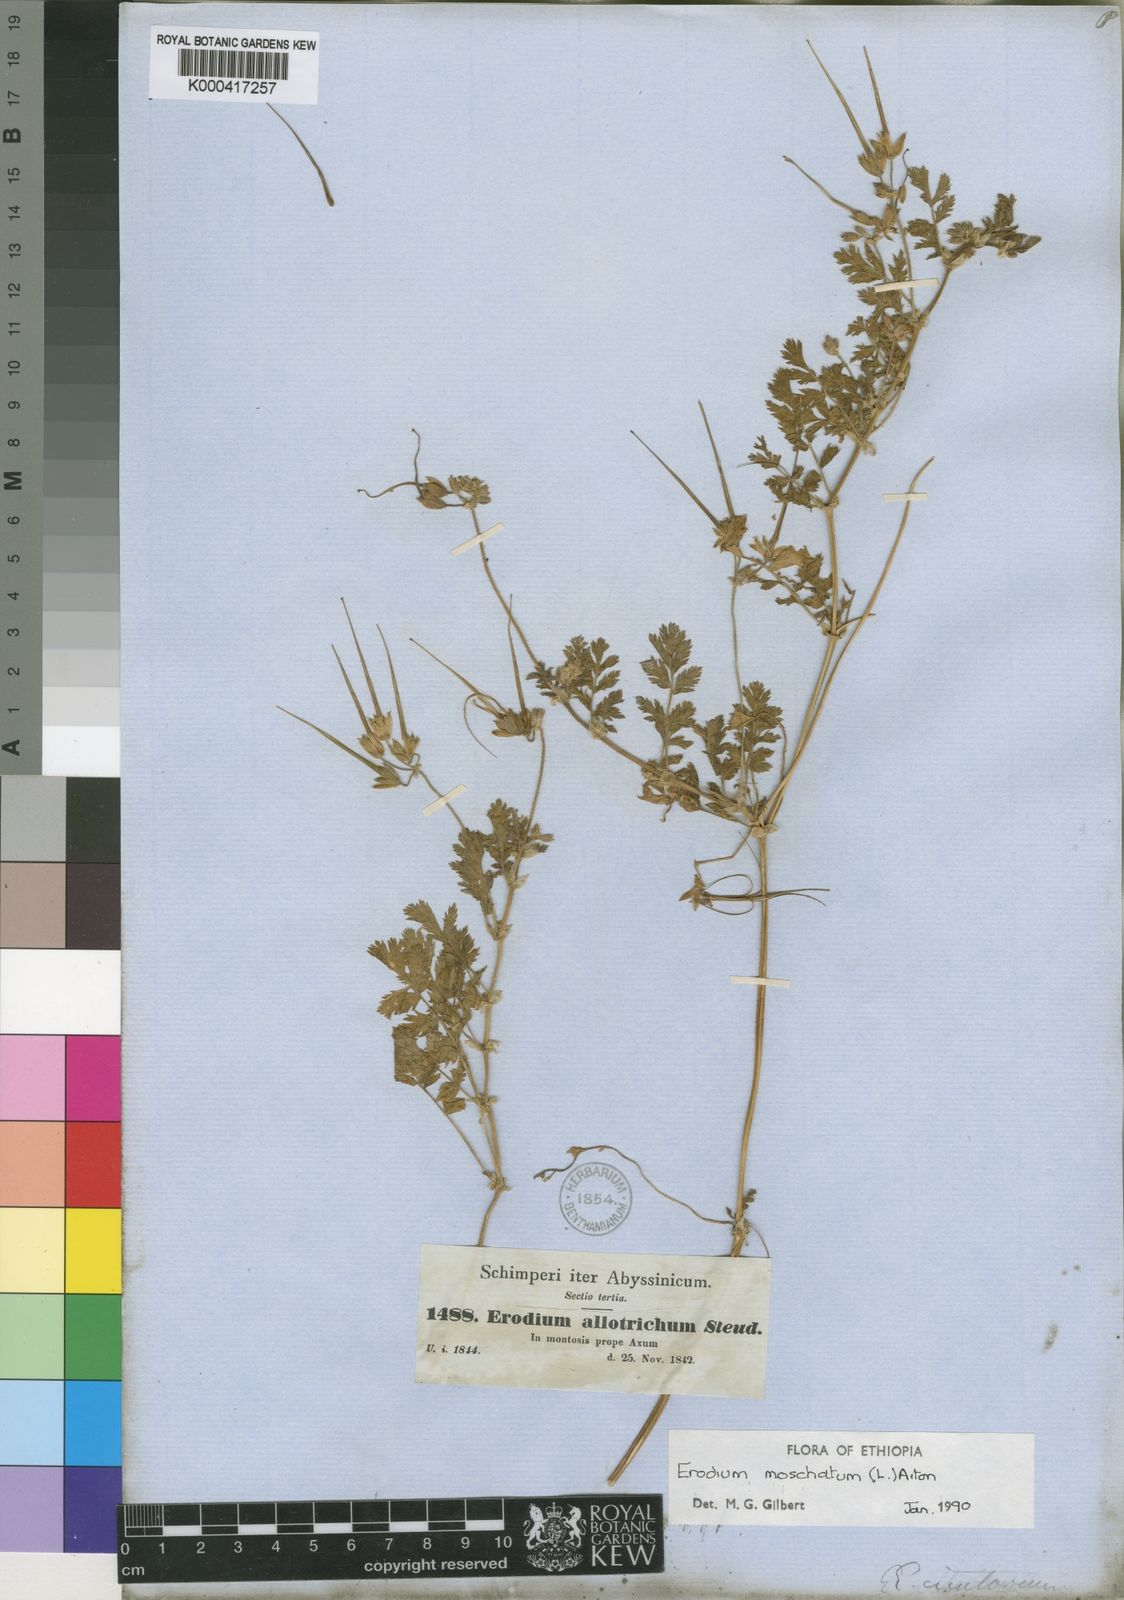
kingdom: Plantae
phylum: Tracheophyta
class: Magnoliopsida
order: Geraniales
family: Geraniaceae
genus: Erodium
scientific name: Erodium
